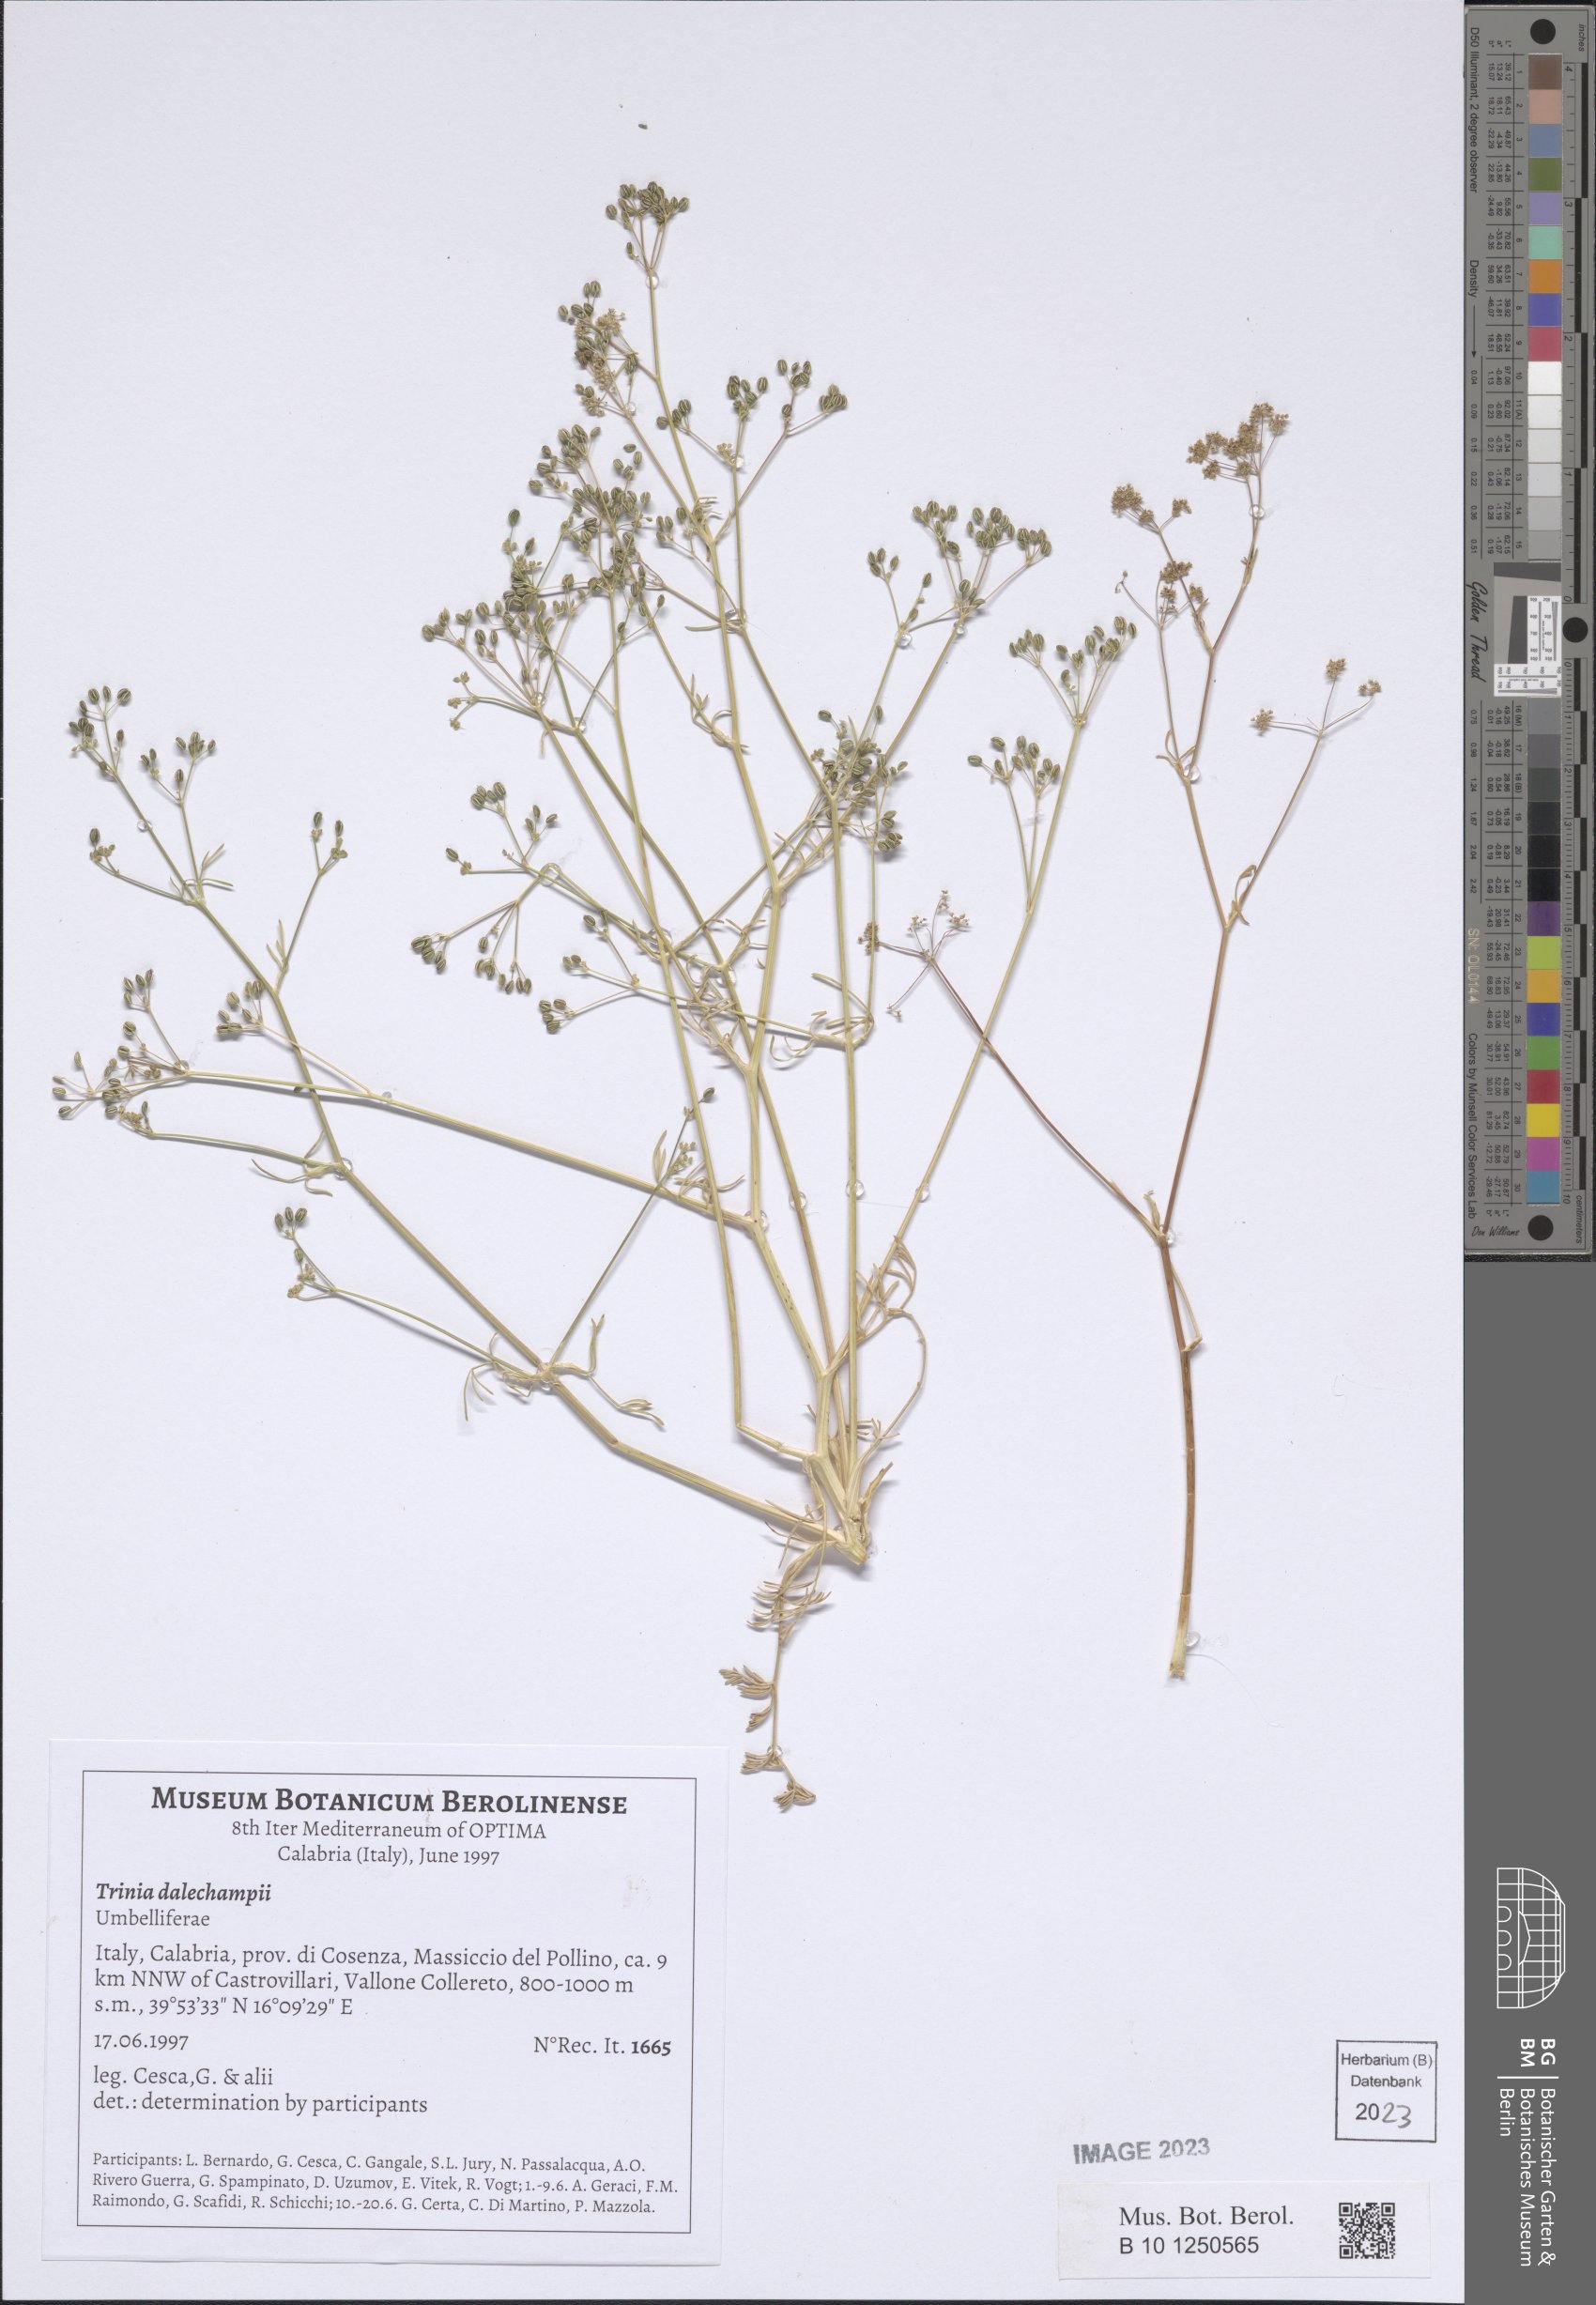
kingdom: Plantae
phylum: Tracheophyta
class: Magnoliopsida
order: Apiales
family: Apiaceae
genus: Trinia
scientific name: Trinia dalechampii
